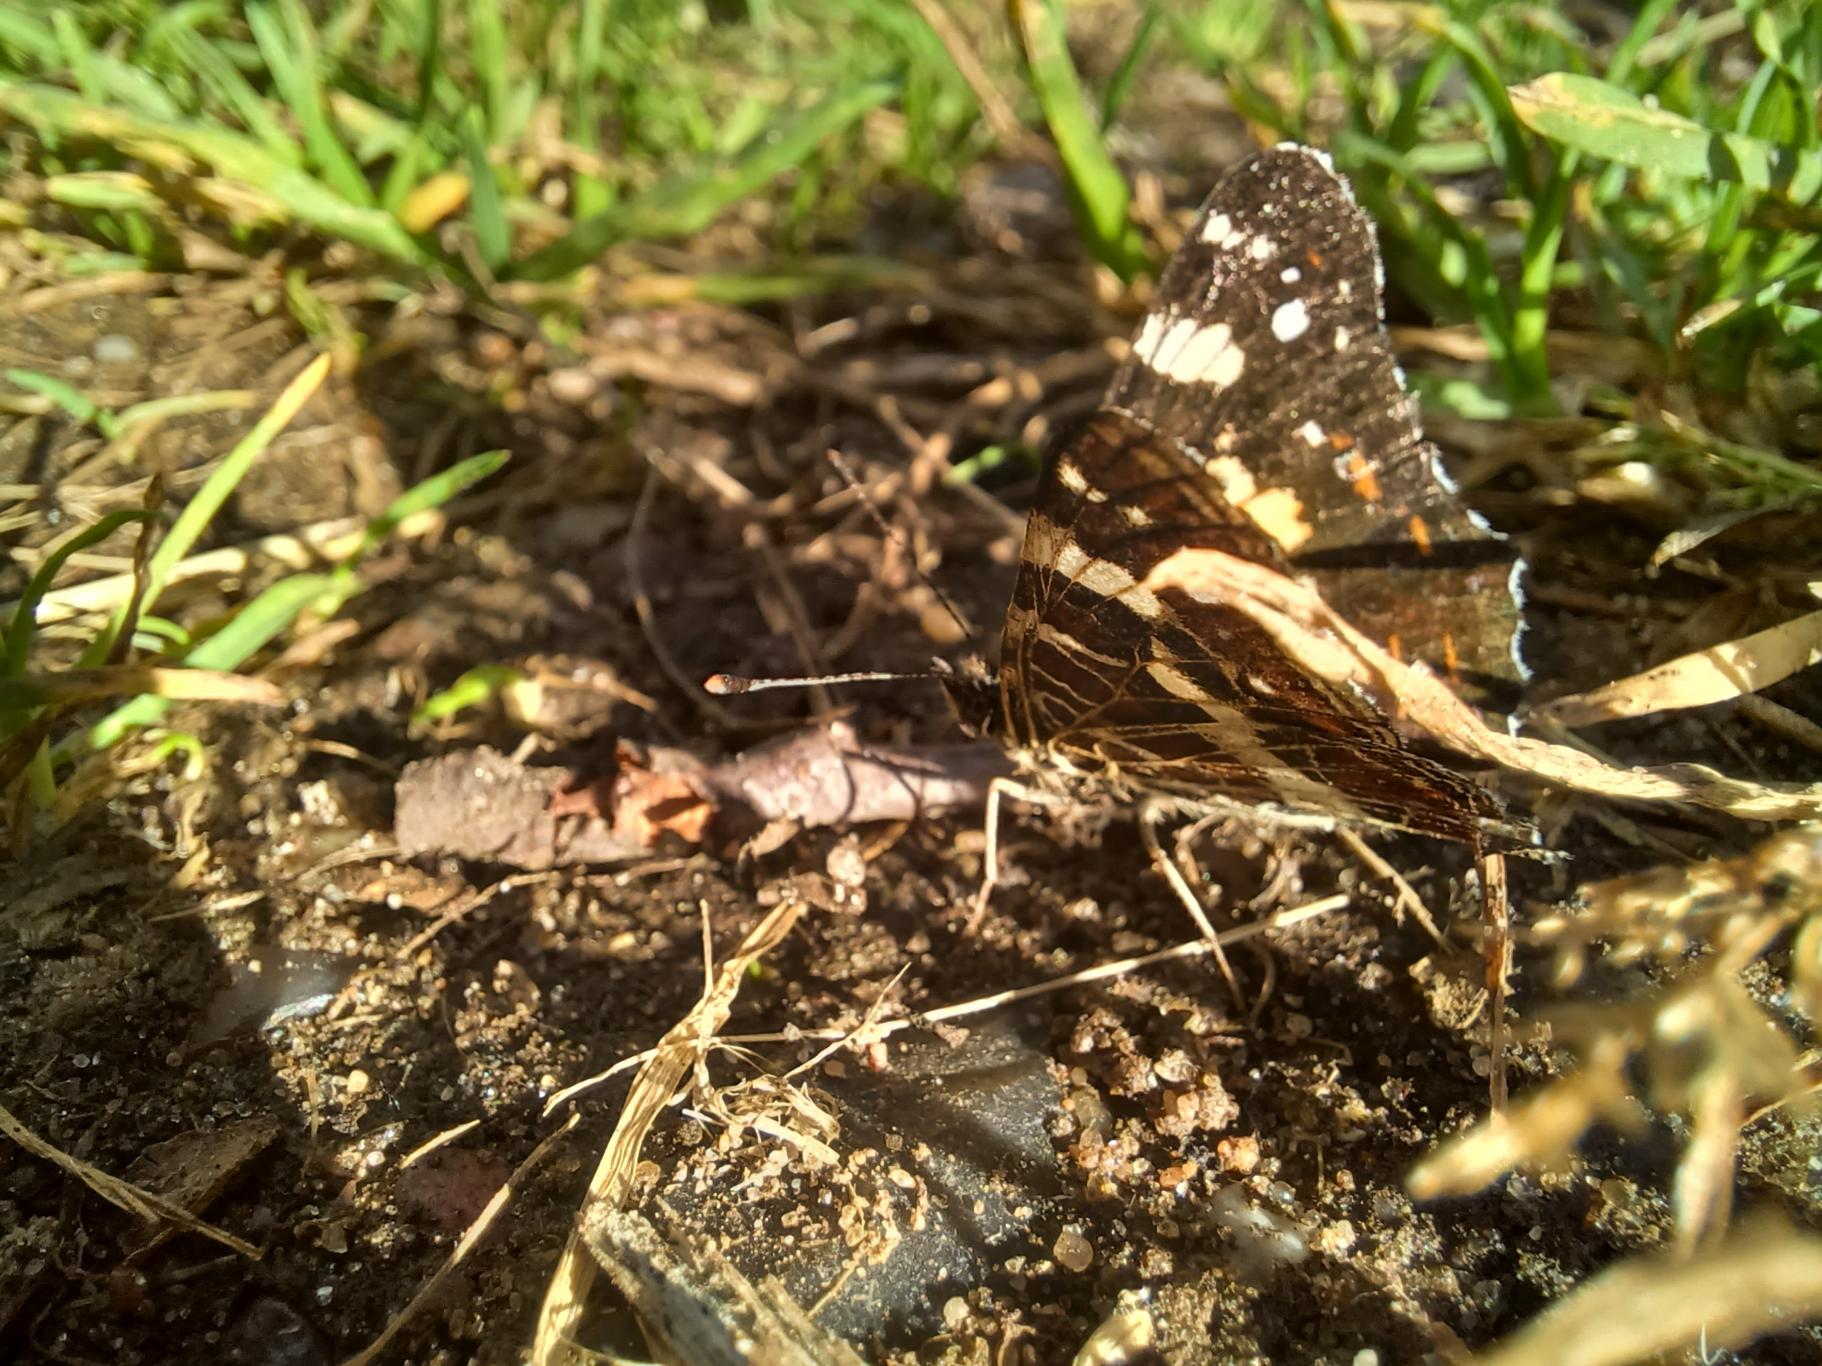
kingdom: Animalia
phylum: Arthropoda
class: Insecta
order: Lepidoptera
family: Nymphalidae
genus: Araschnia
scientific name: Araschnia levana
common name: Nældesommerfugl
